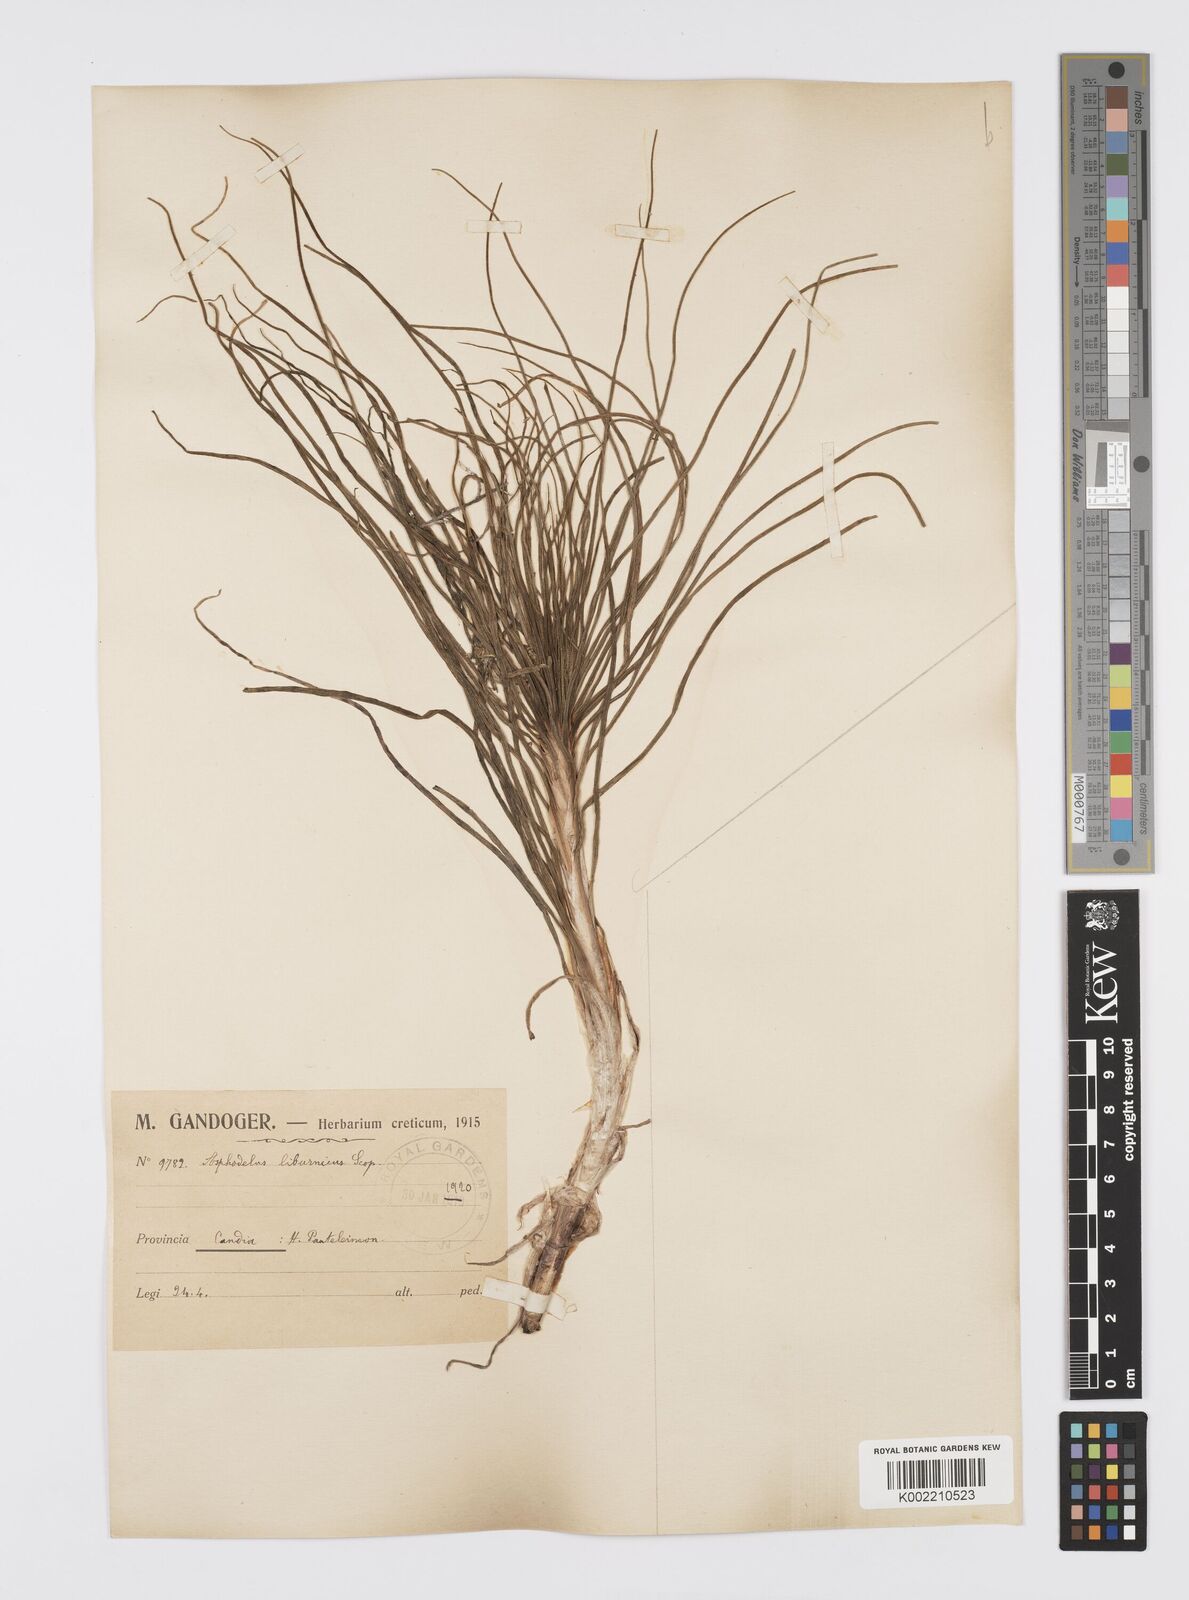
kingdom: Plantae
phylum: Tracheophyta
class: Liliopsida
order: Asparagales
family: Asphodelaceae
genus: Asphodeline
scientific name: Asphodeline liburnica
